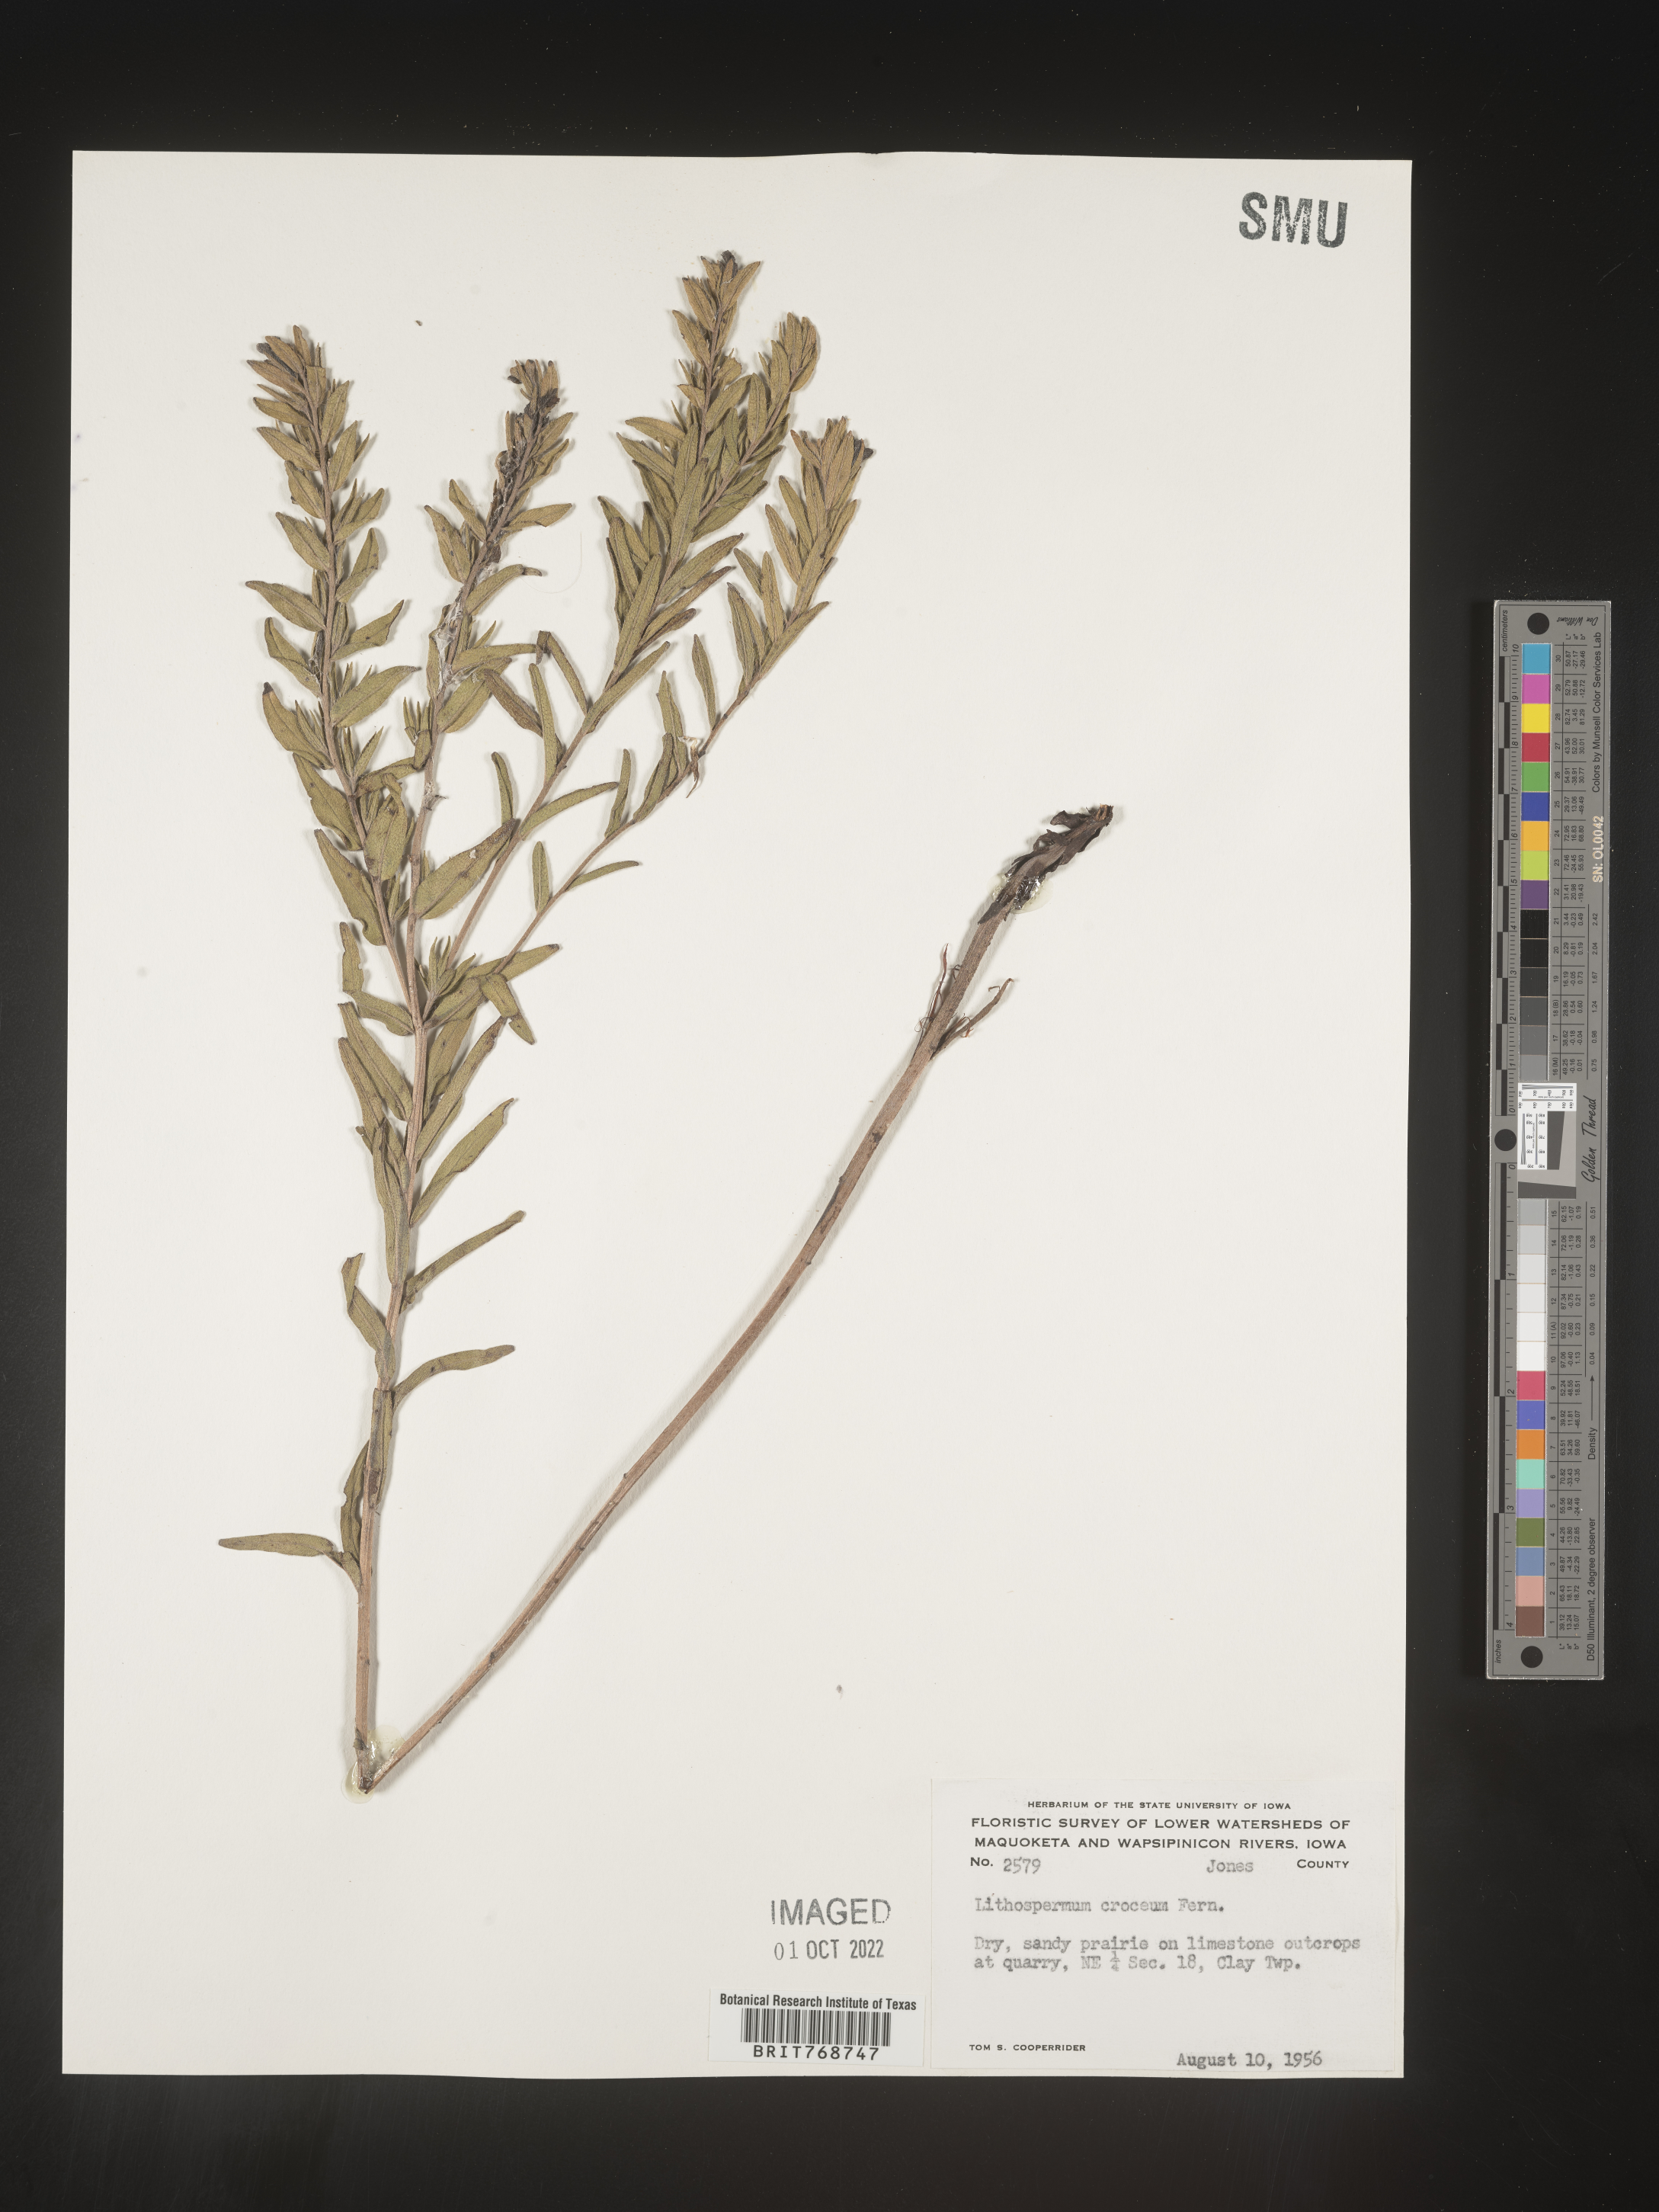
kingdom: Plantae
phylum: Tracheophyta
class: Magnoliopsida
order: Boraginales
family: Boraginaceae
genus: Lithospermum
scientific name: Lithospermum caroliniense
